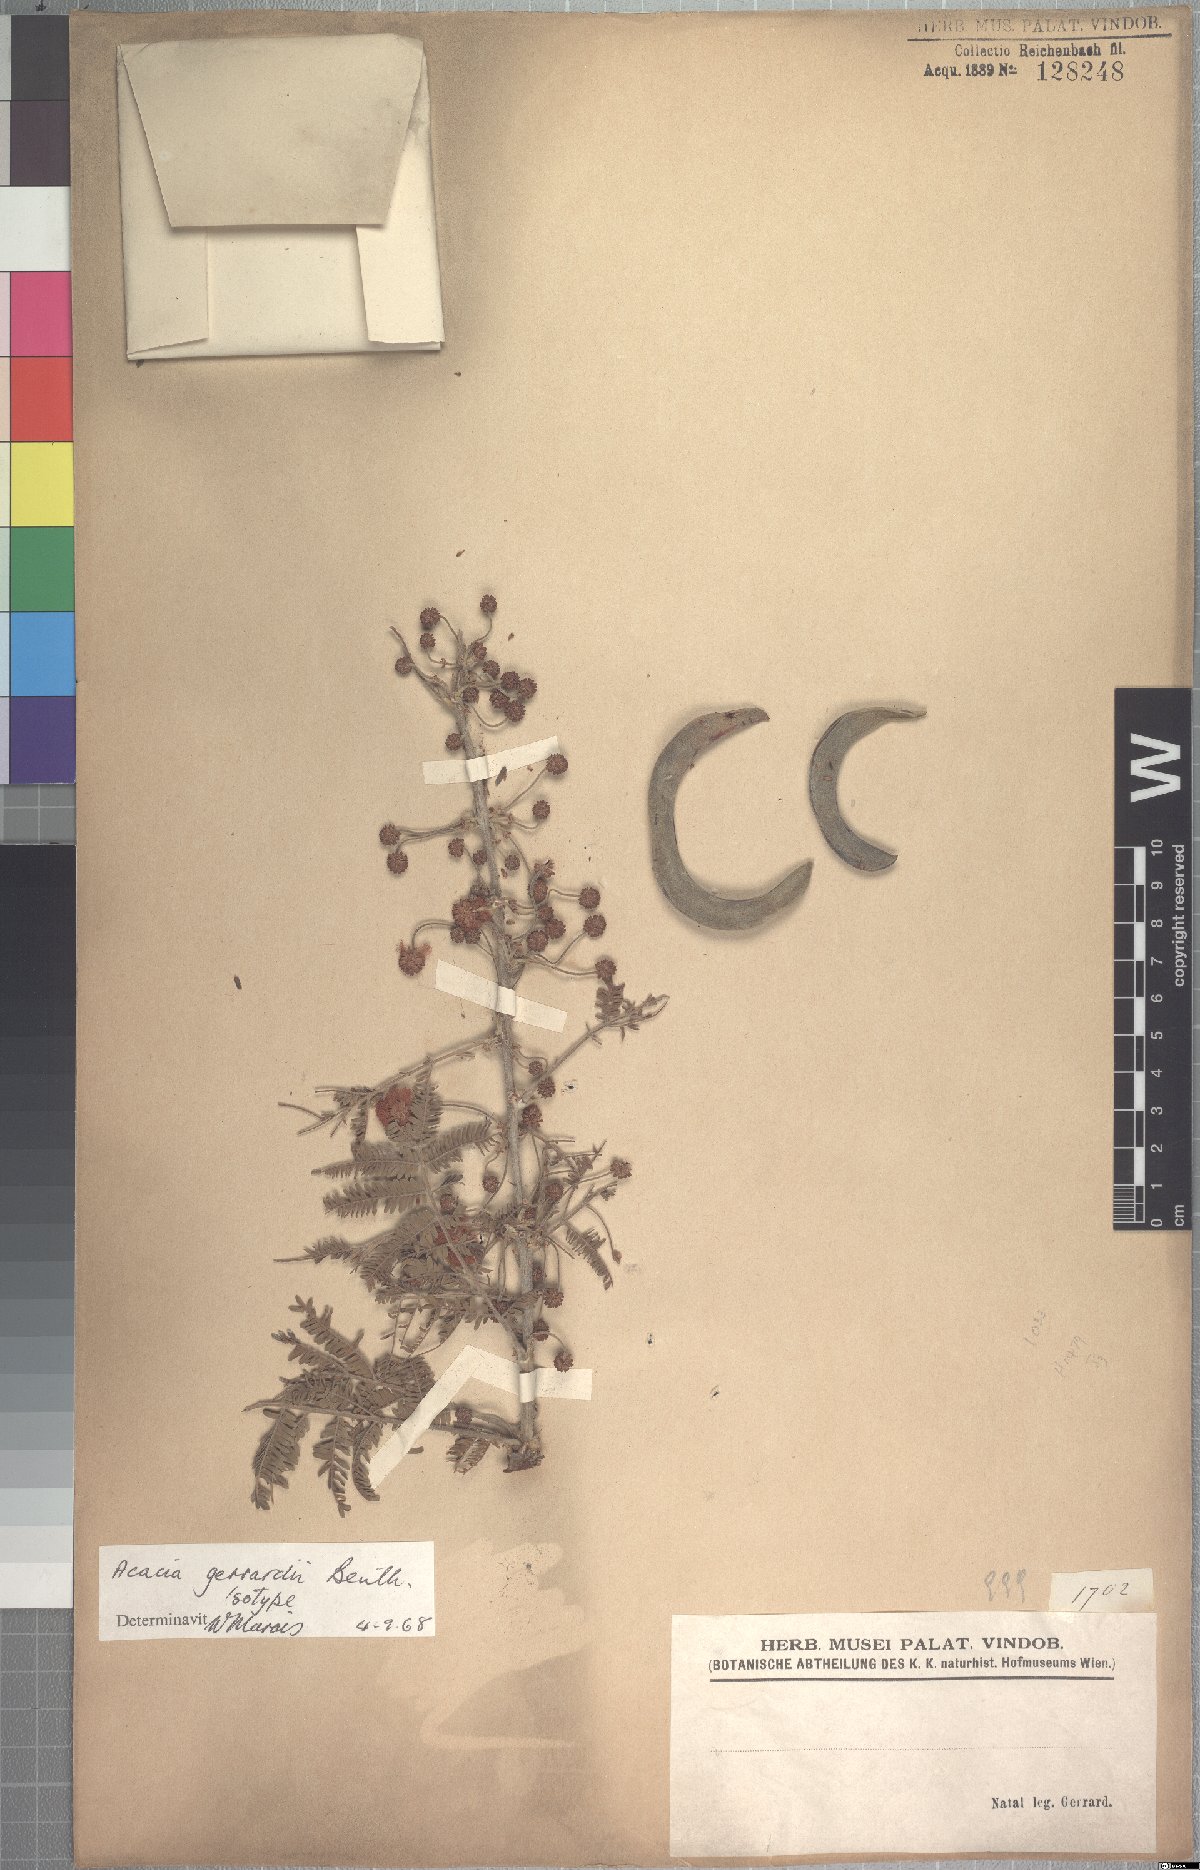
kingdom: Plantae
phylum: Tracheophyta
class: Magnoliopsida
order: Fabales
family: Fabaceae
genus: Vachellia
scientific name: Vachellia gerrardii
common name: Redthorn
